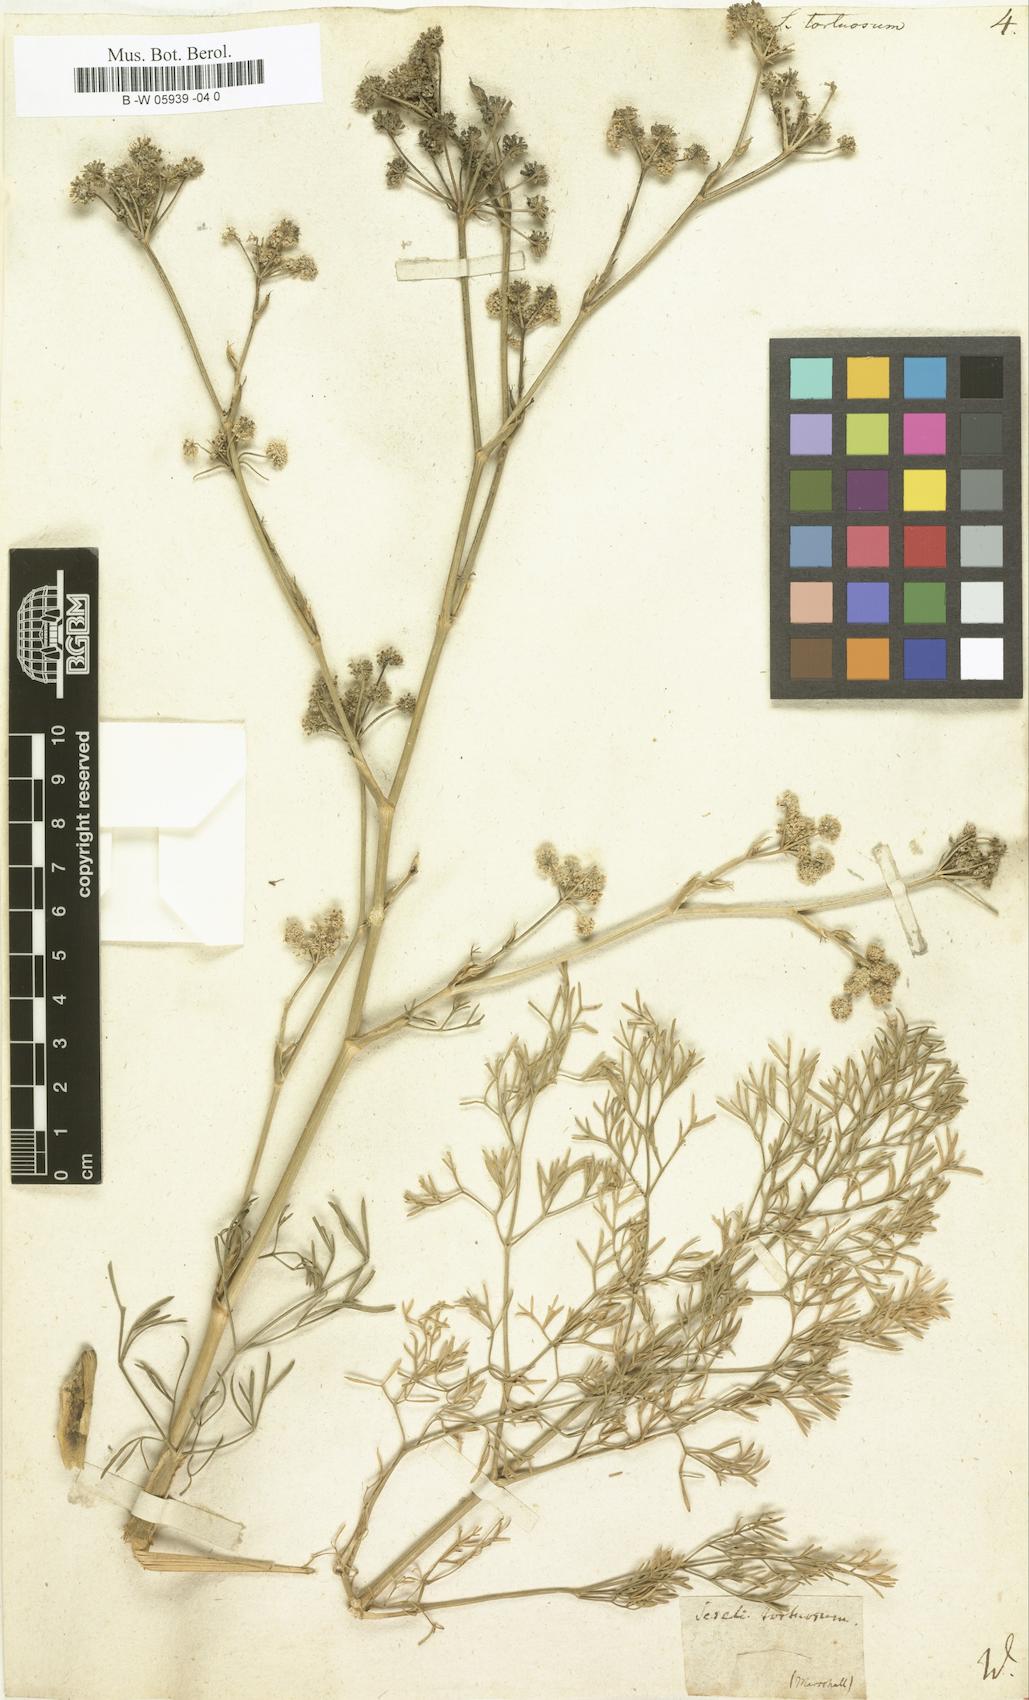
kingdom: Plantae
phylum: Tracheophyta
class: Magnoliopsida
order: Apiales
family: Apiaceae
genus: Seseli
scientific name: Seseli tortuosum
